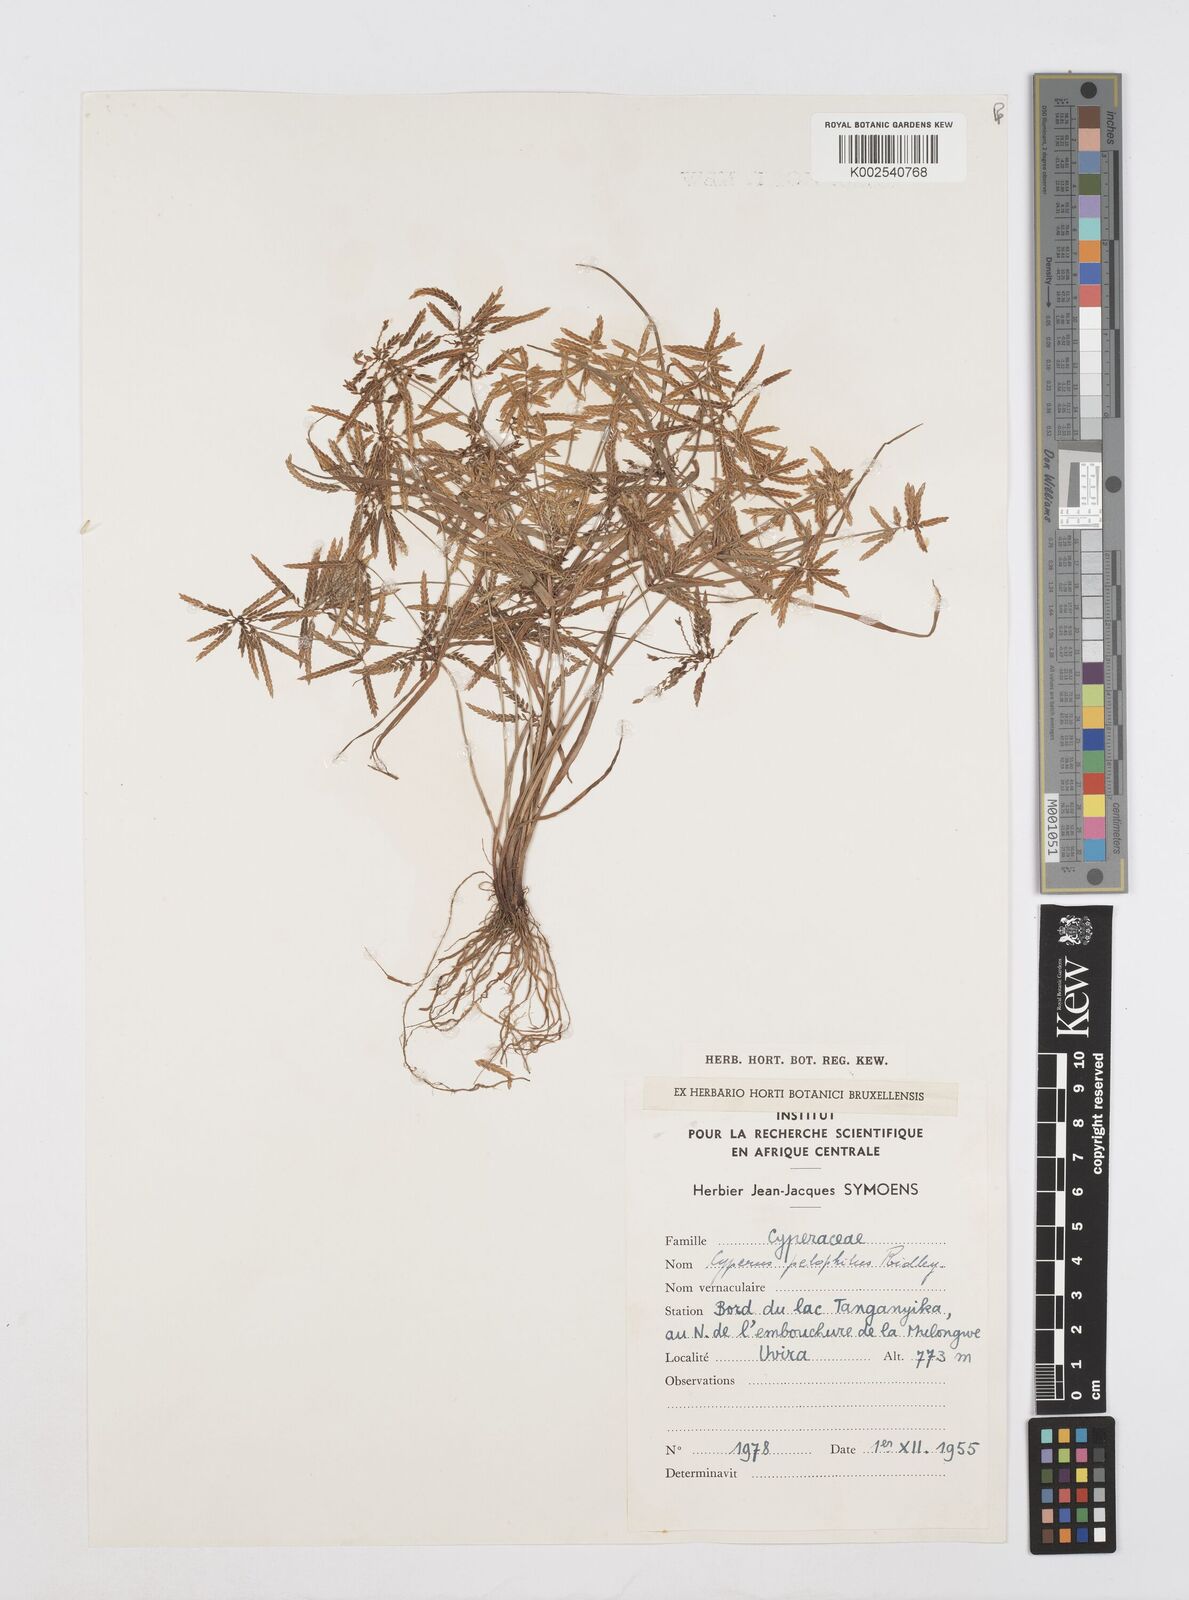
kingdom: Plantae
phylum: Tracheophyta
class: Liliopsida
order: Poales
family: Cyperaceae
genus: Cyperus
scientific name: Cyperus pelophilus
